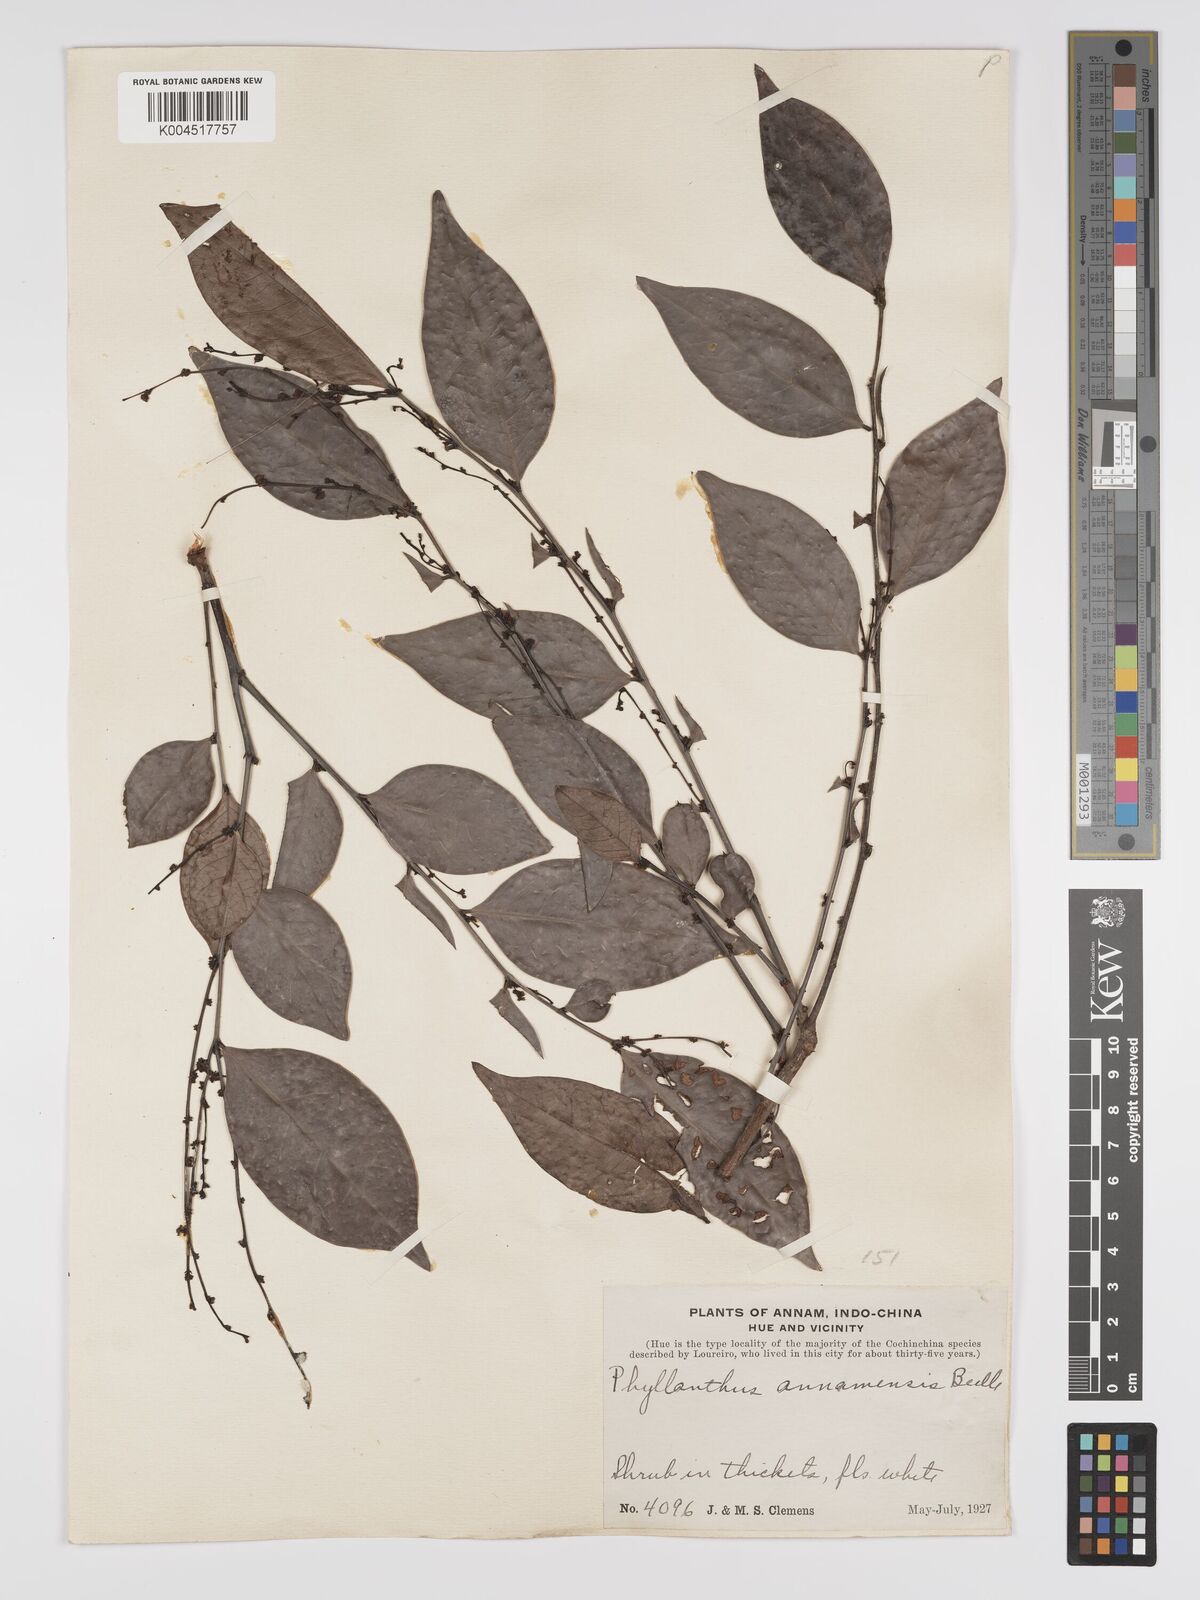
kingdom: Plantae
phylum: Tracheophyta
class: Magnoliopsida
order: Malpighiales
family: Phyllanthaceae
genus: Phyllanthus
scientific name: Phyllanthus pachyphyllus
